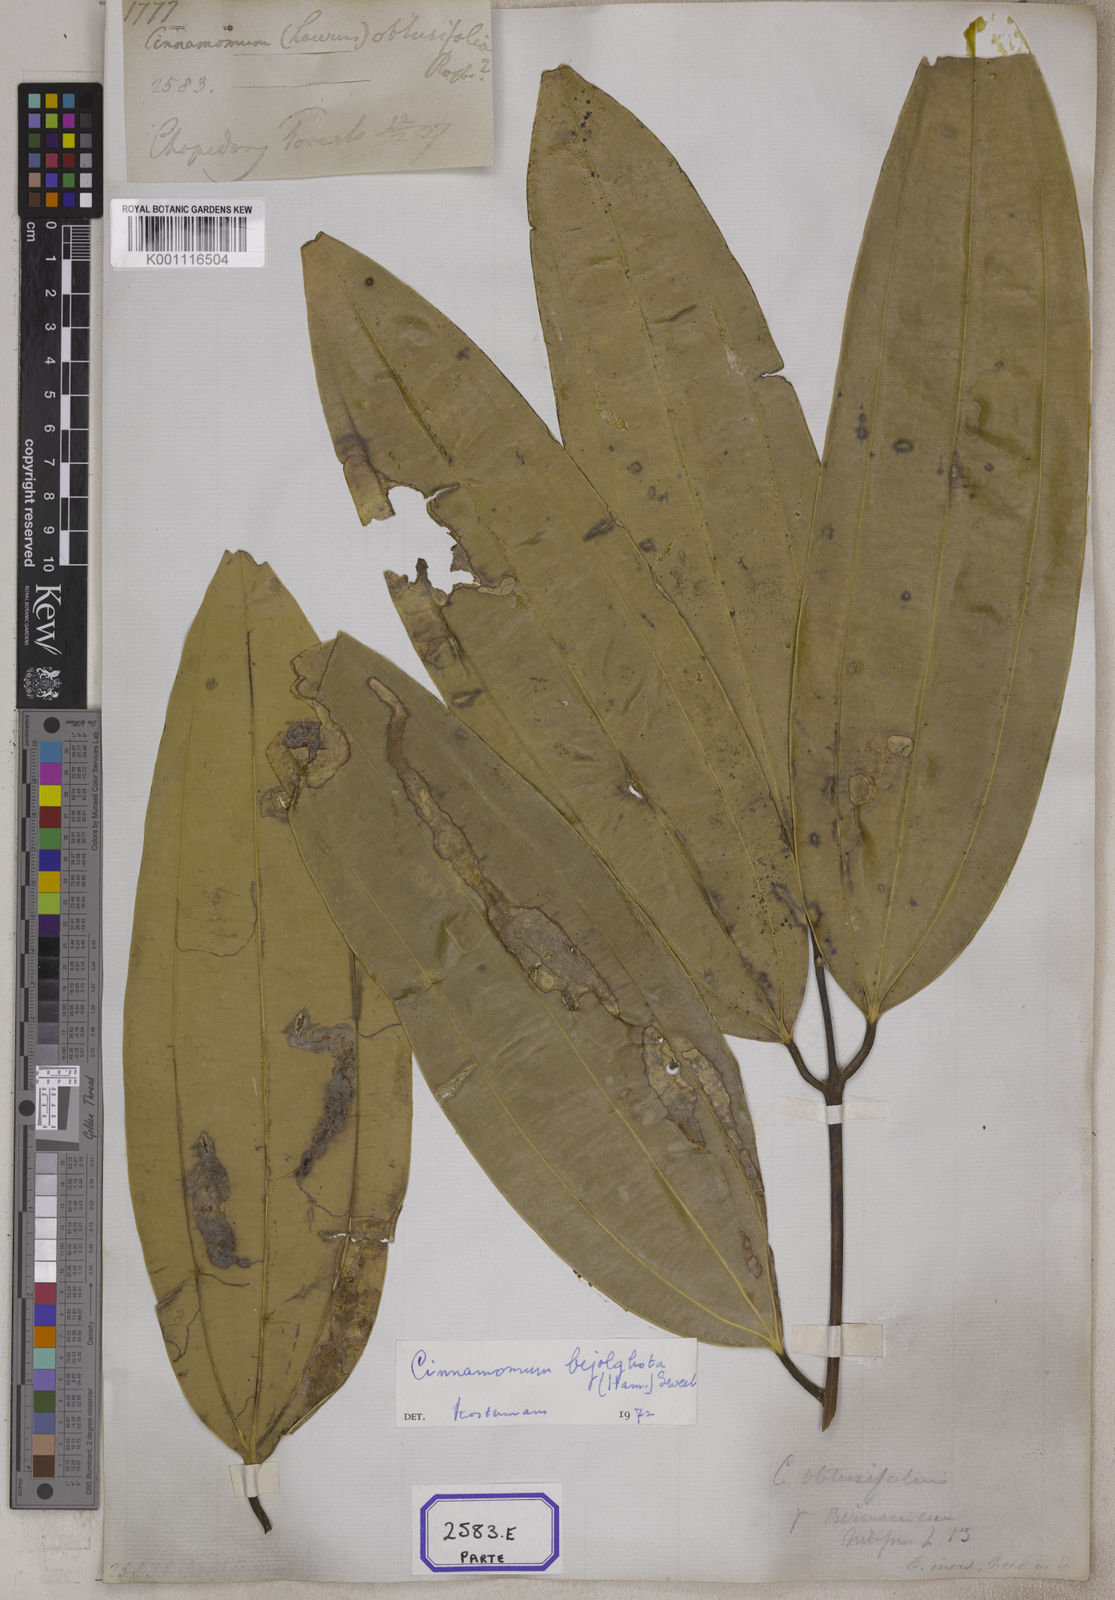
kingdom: Plantae
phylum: Tracheophyta
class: Magnoliopsida
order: Laurales
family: Lauraceae
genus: Cinnamomum
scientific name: Cinnamomum
